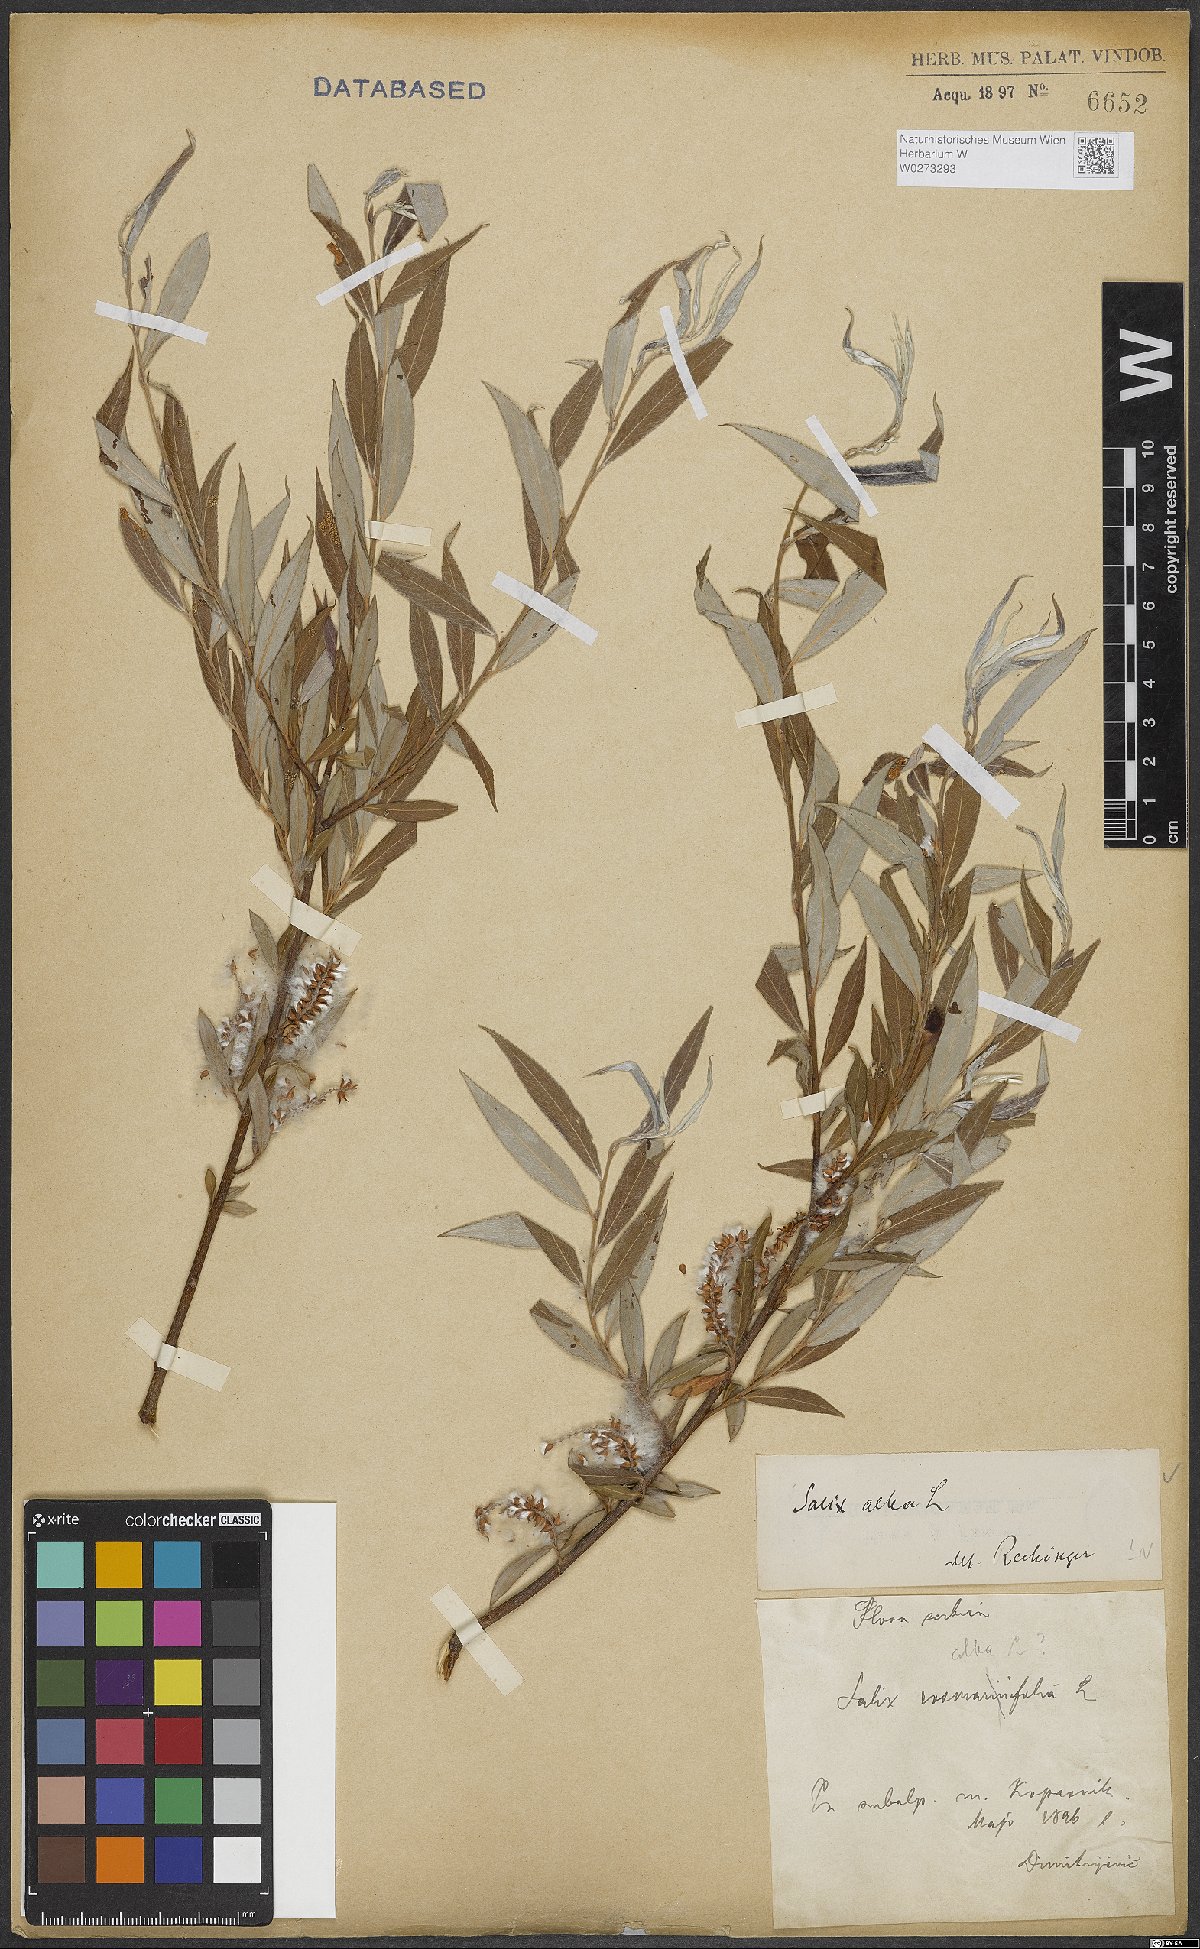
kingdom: Plantae
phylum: Tracheophyta
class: Magnoliopsida
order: Malpighiales
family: Salicaceae
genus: Salix
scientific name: Salix alba
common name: White willow
